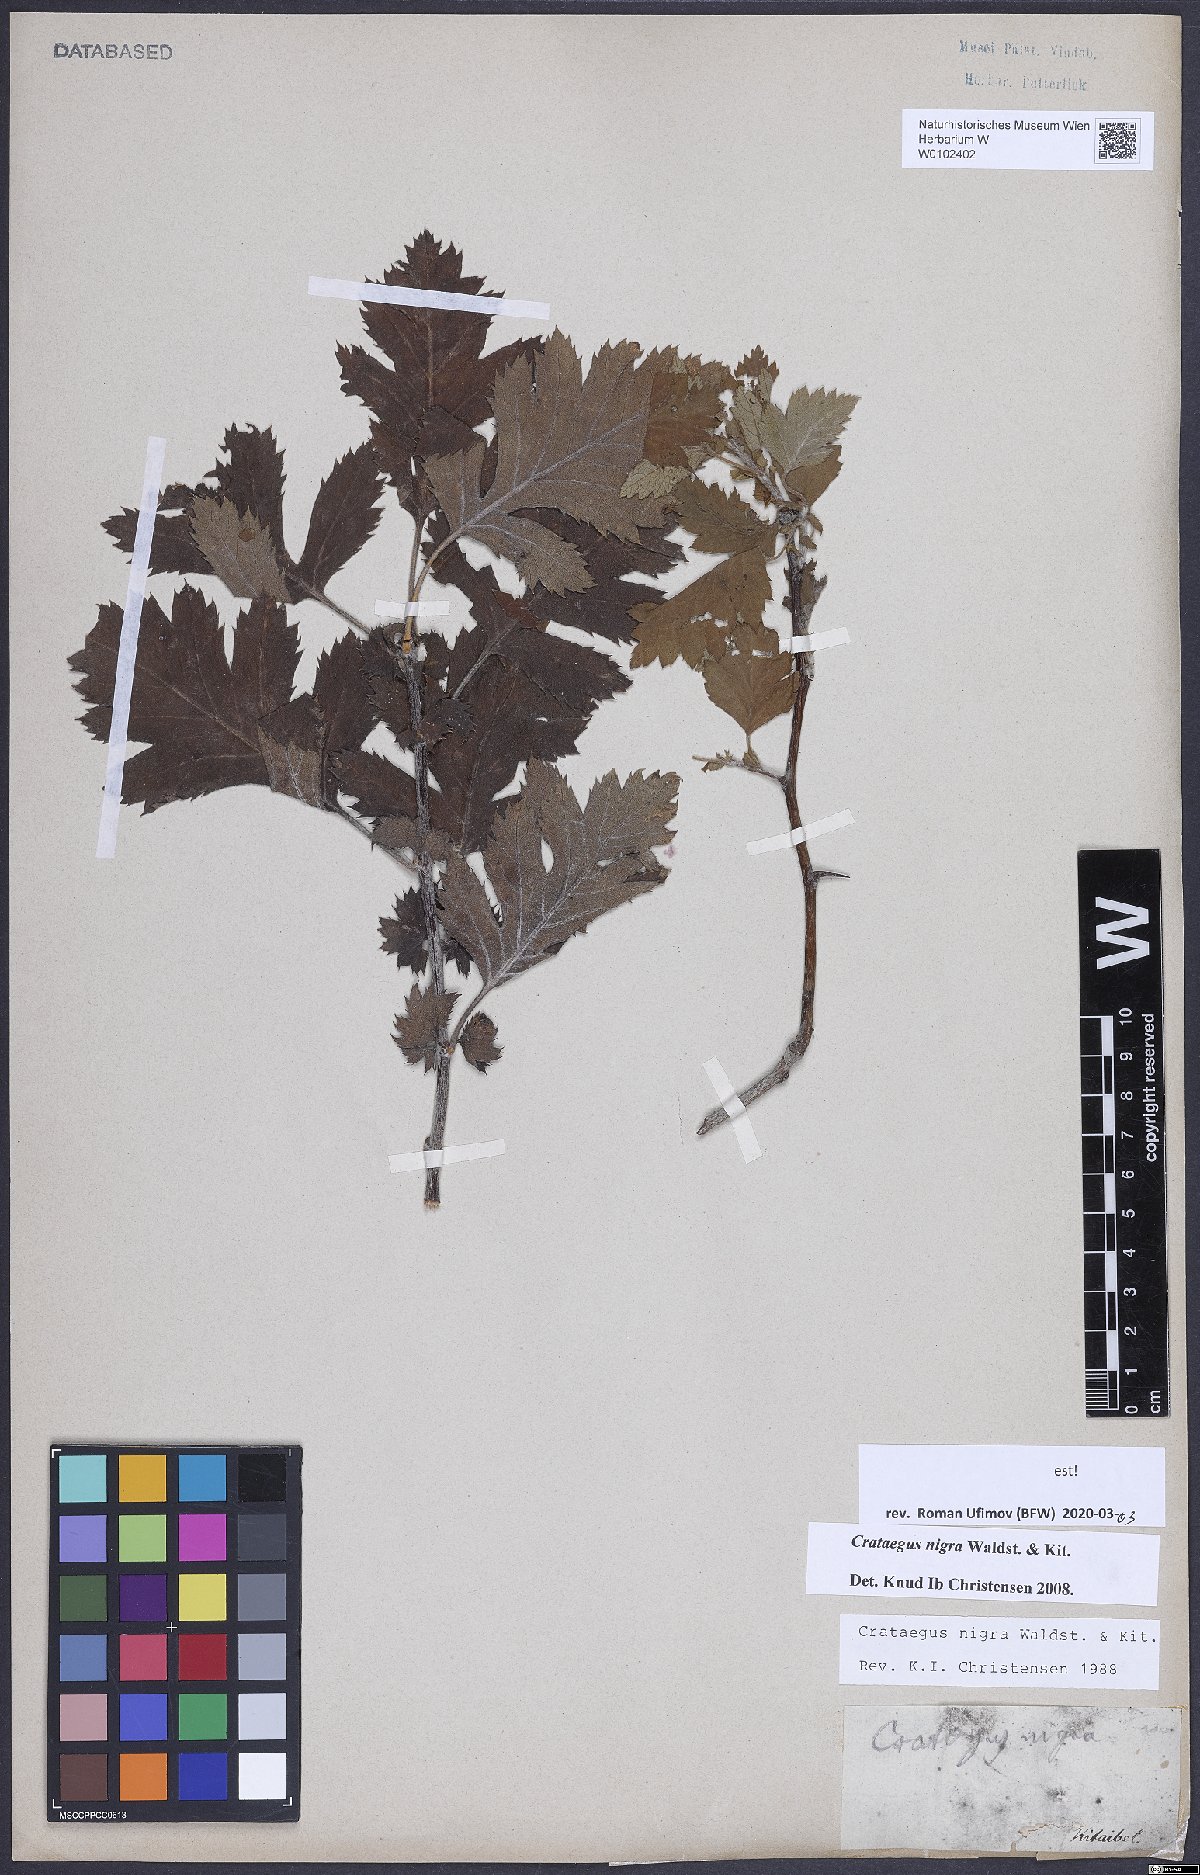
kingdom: Plantae
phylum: Tracheophyta
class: Magnoliopsida
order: Rosales
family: Rosaceae
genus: Crataegus
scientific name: Crataegus nigra
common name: Hungarian thorn
